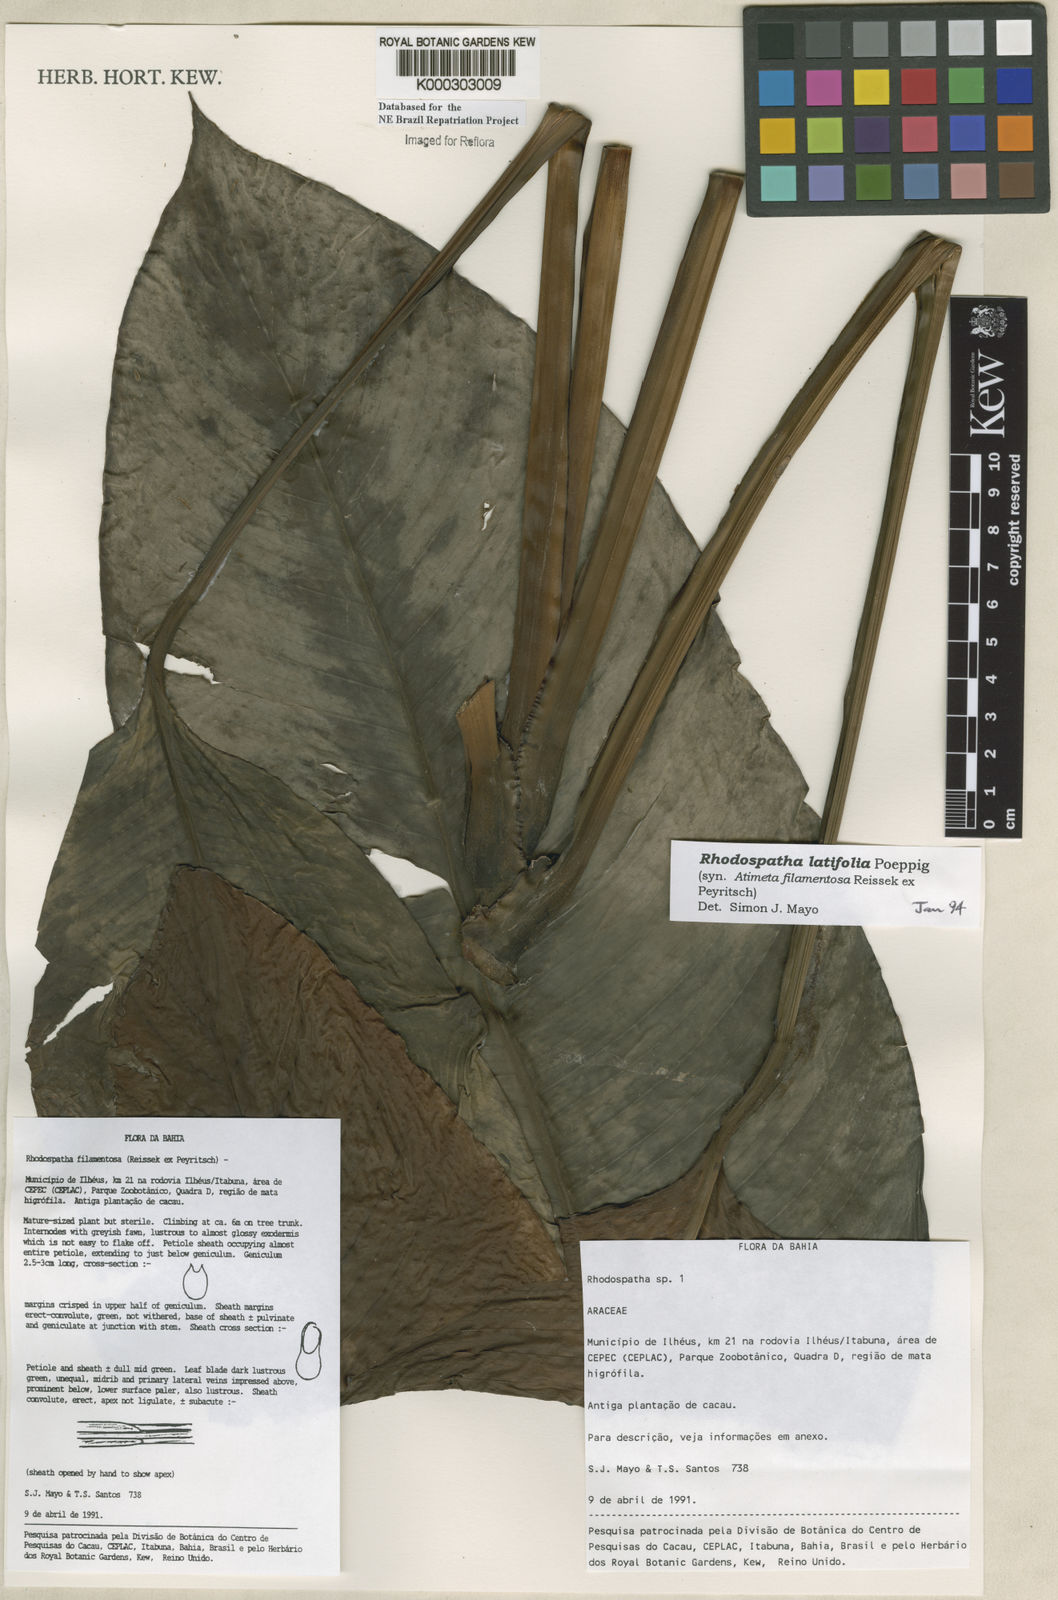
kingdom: Plantae
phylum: Tracheophyta
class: Liliopsida
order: Alismatales
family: Araceae
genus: Rhodospatha
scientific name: Rhodospatha latifolia
